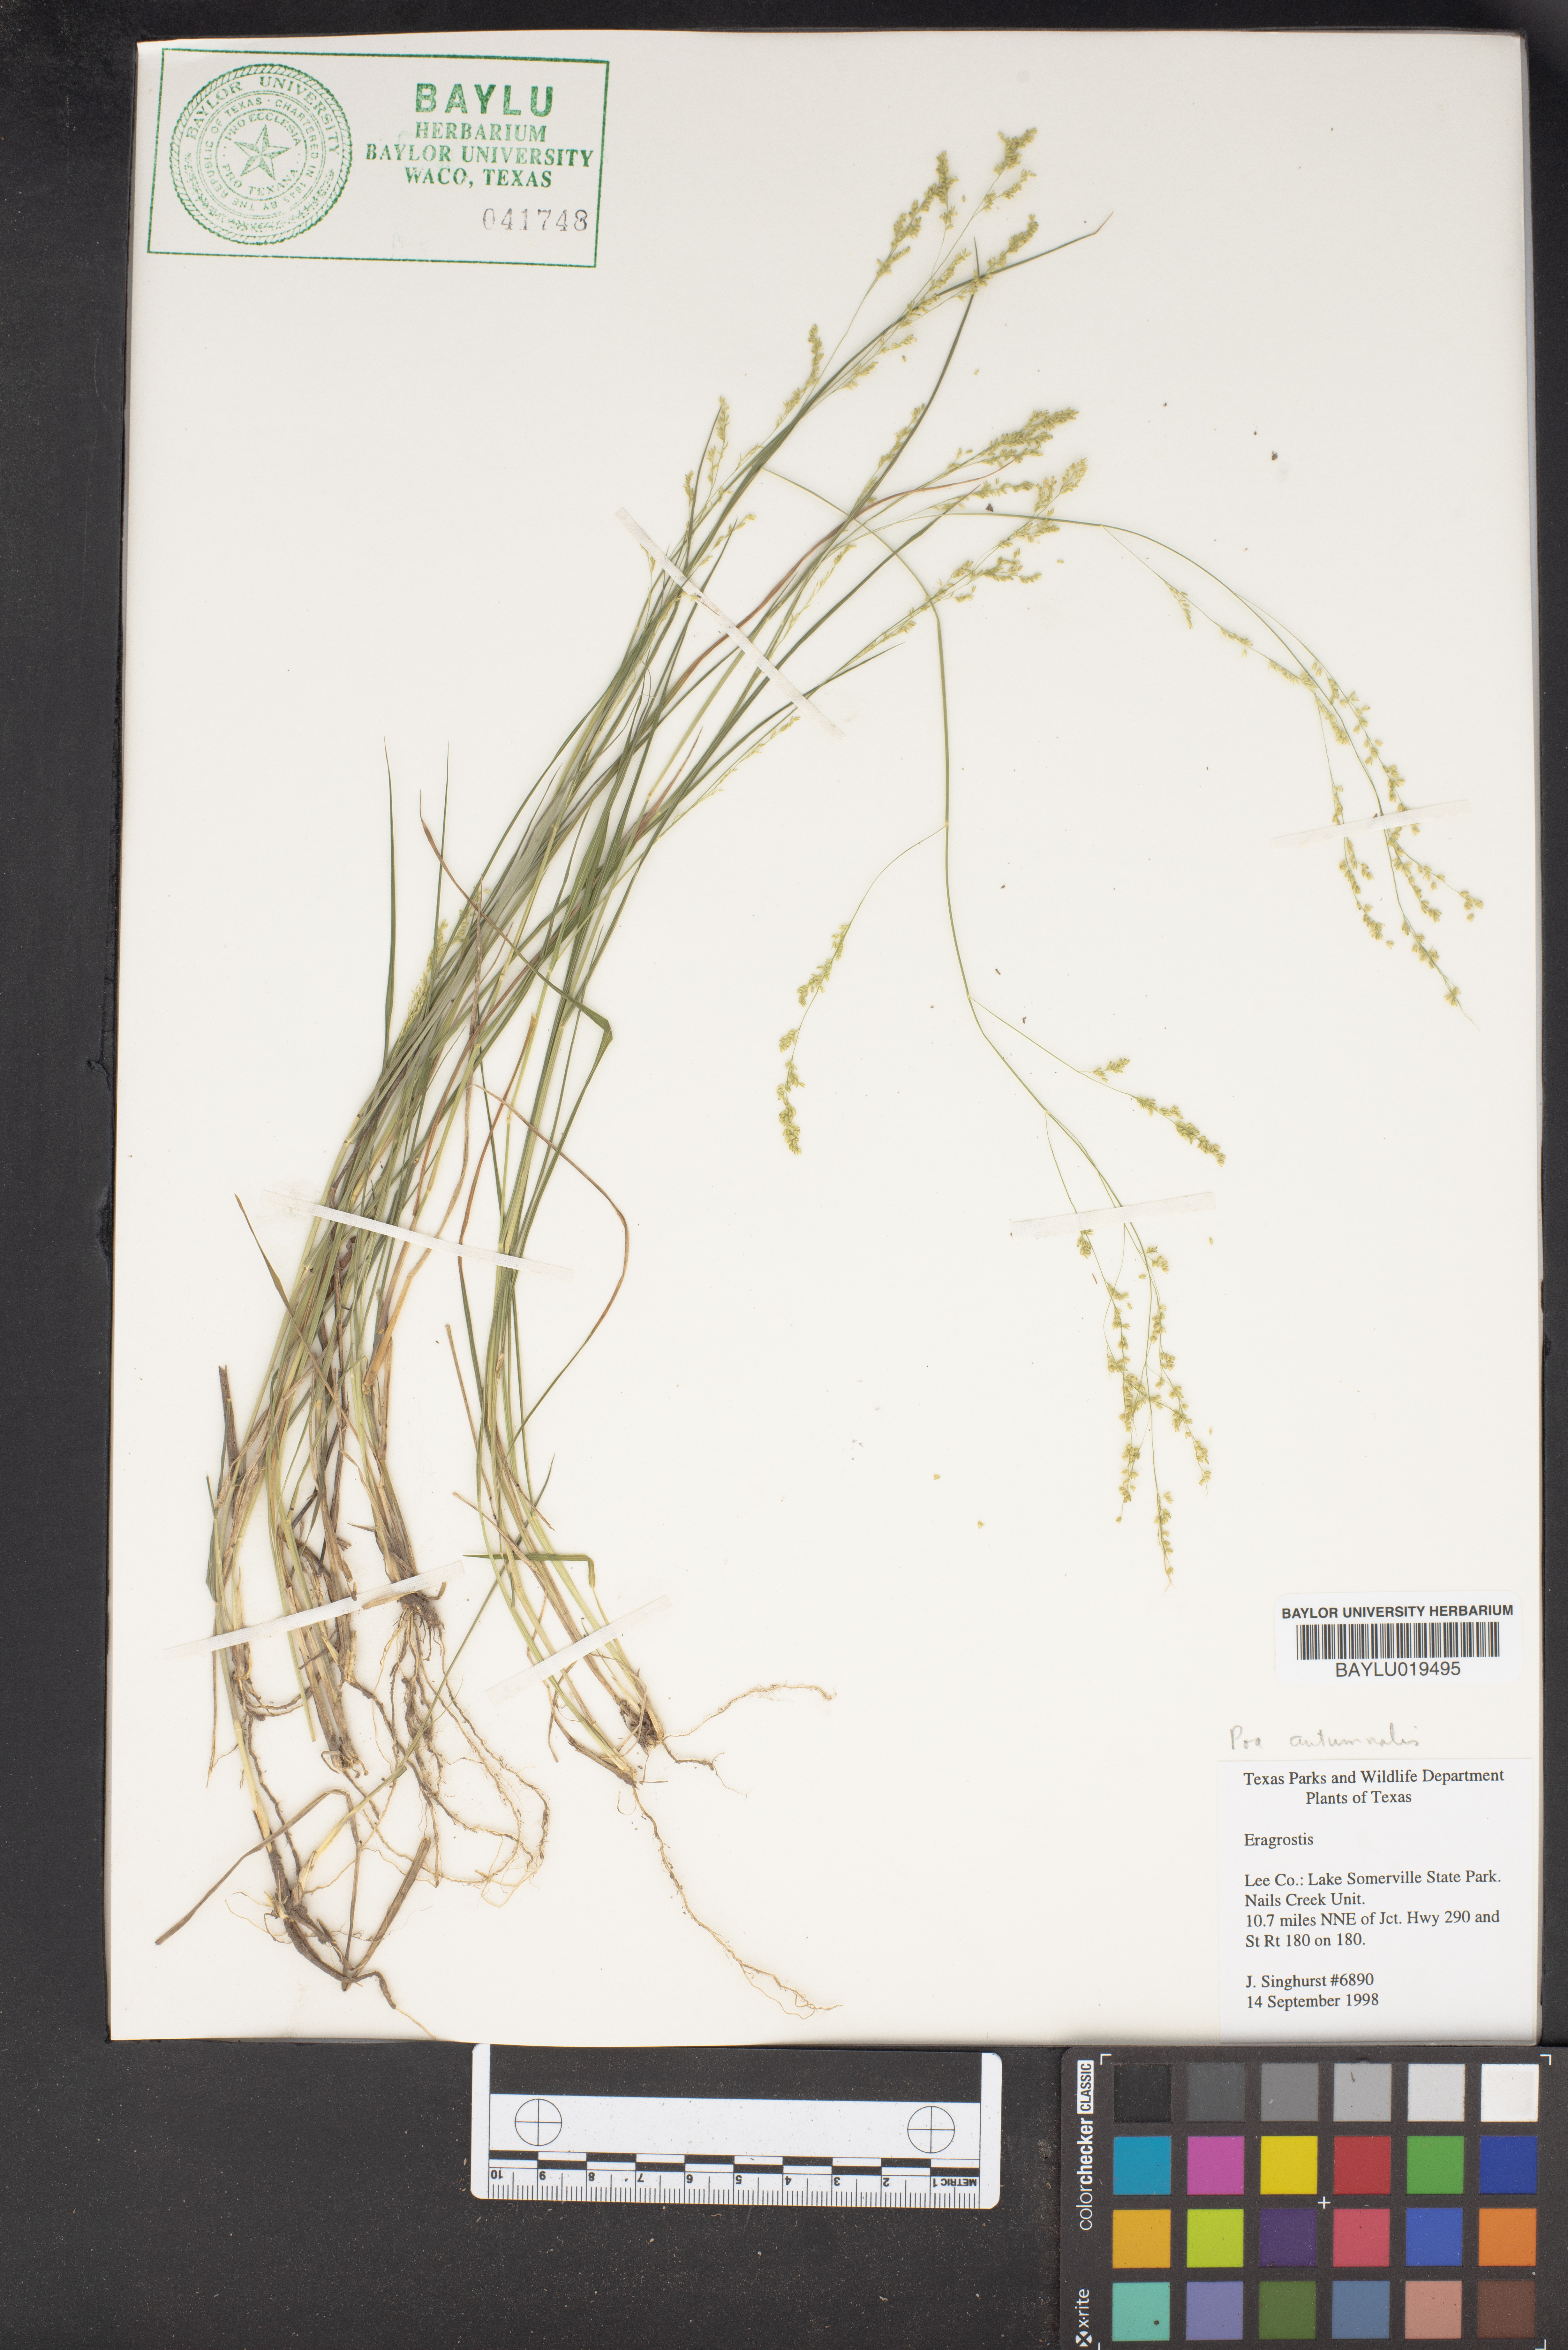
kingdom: Plantae
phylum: Tracheophyta
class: Liliopsida
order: Poales
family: Poaceae
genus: Eragrostis
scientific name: Eragrostis
